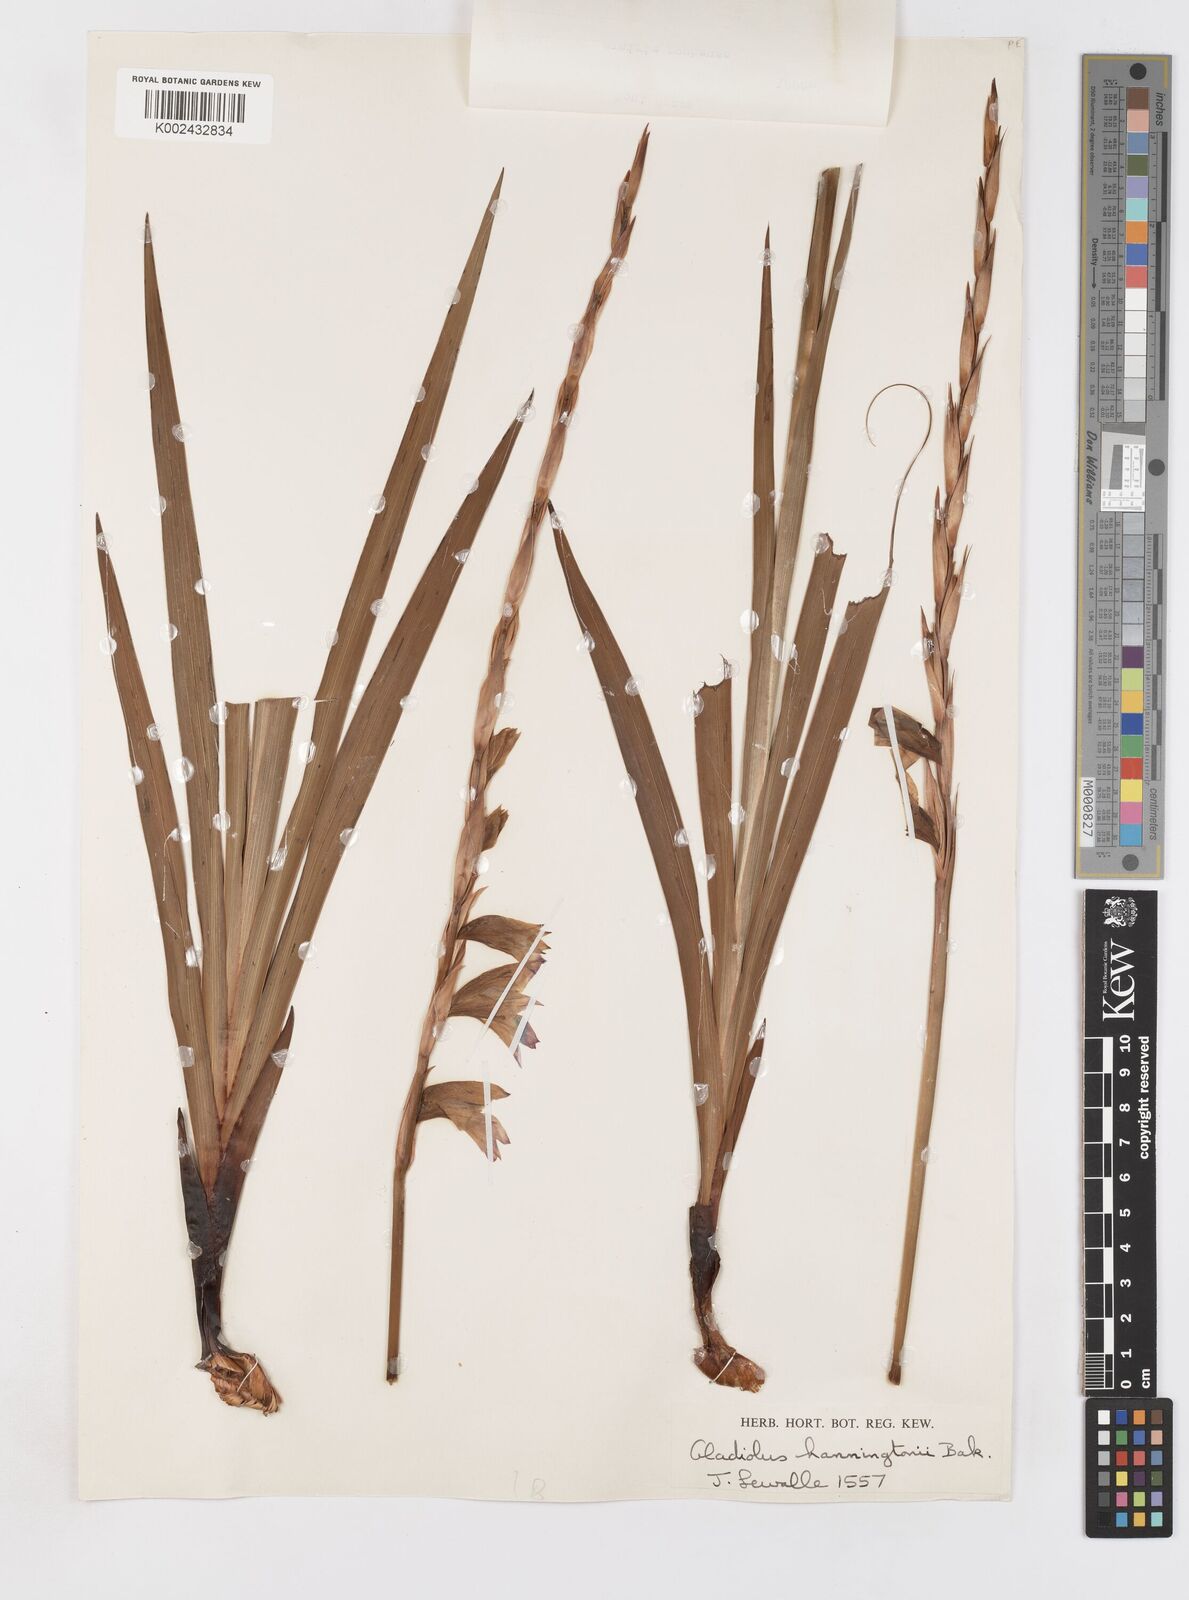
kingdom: Plantae
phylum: Tracheophyta
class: Liliopsida
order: Asparagales
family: Iridaceae
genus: Gladiolus
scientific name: Gladiolus gregarius
